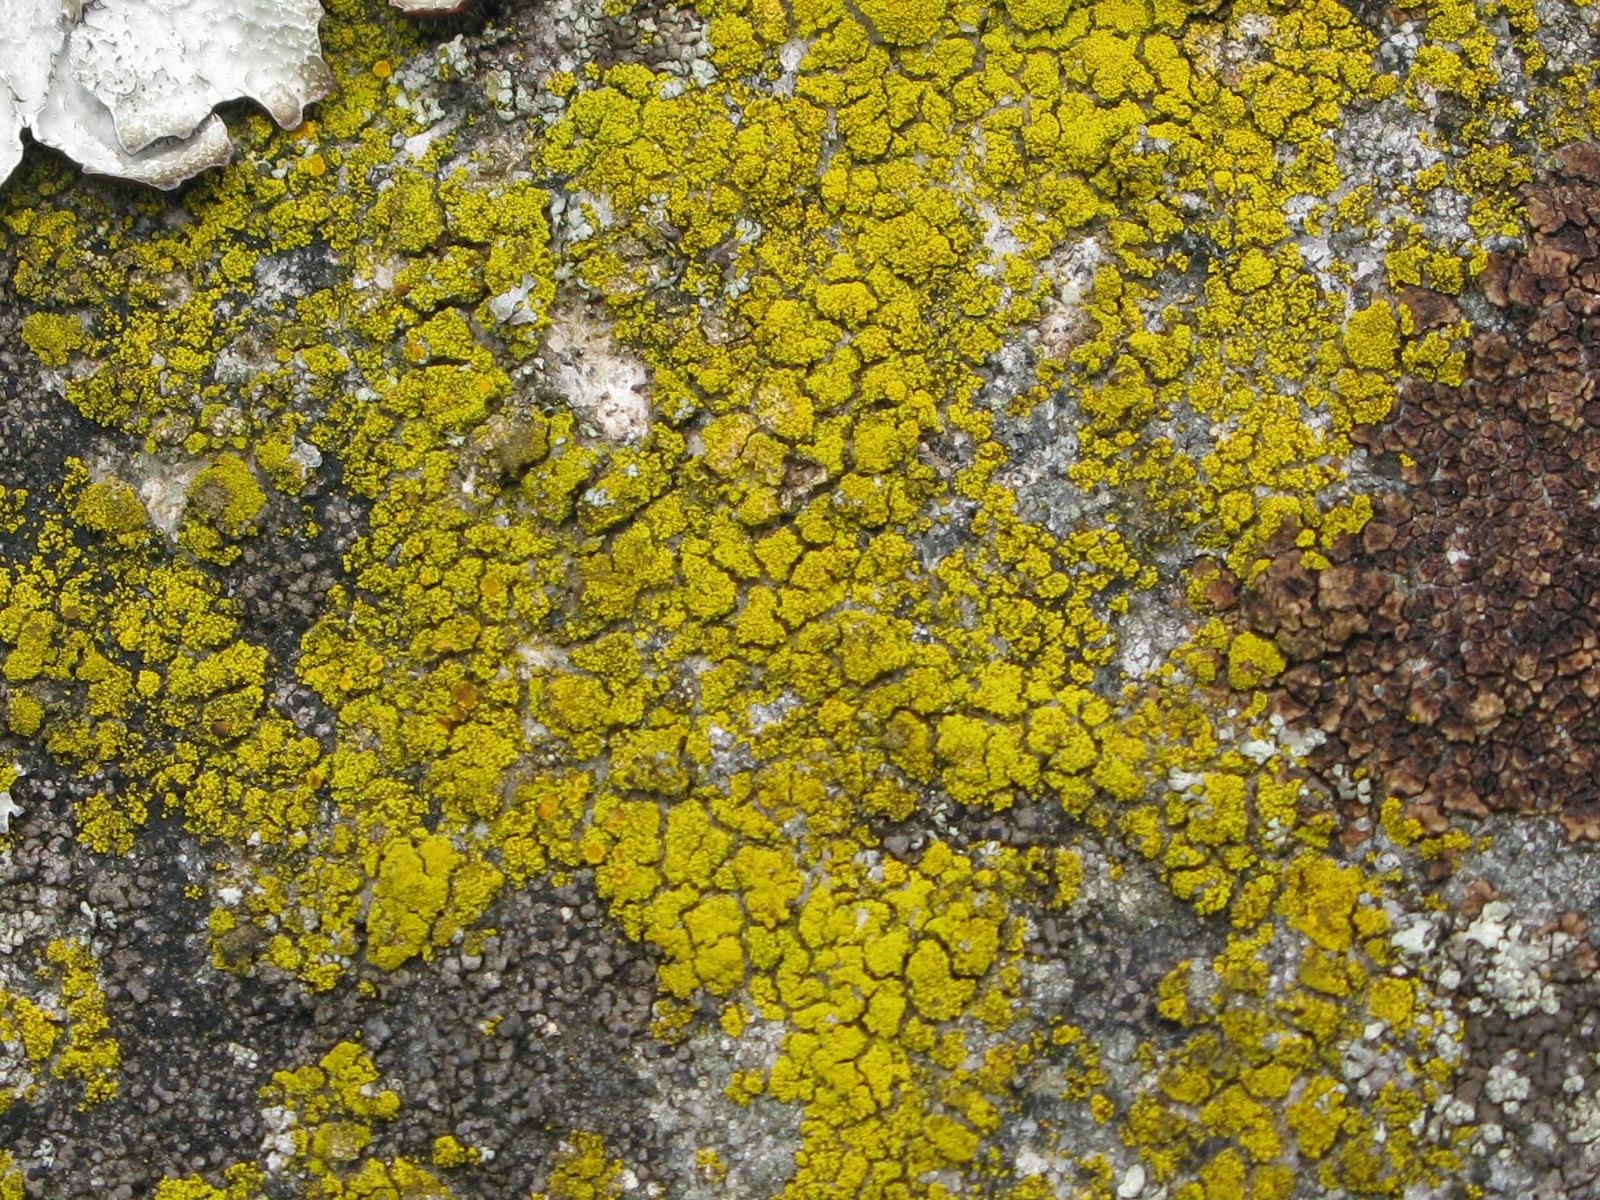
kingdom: Fungi
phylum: Ascomycota
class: Candelariomycetes
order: Candelariales
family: Candelariaceae
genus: Candelariella
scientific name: Candelariella vitellina
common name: almindelig æggeblommelav
